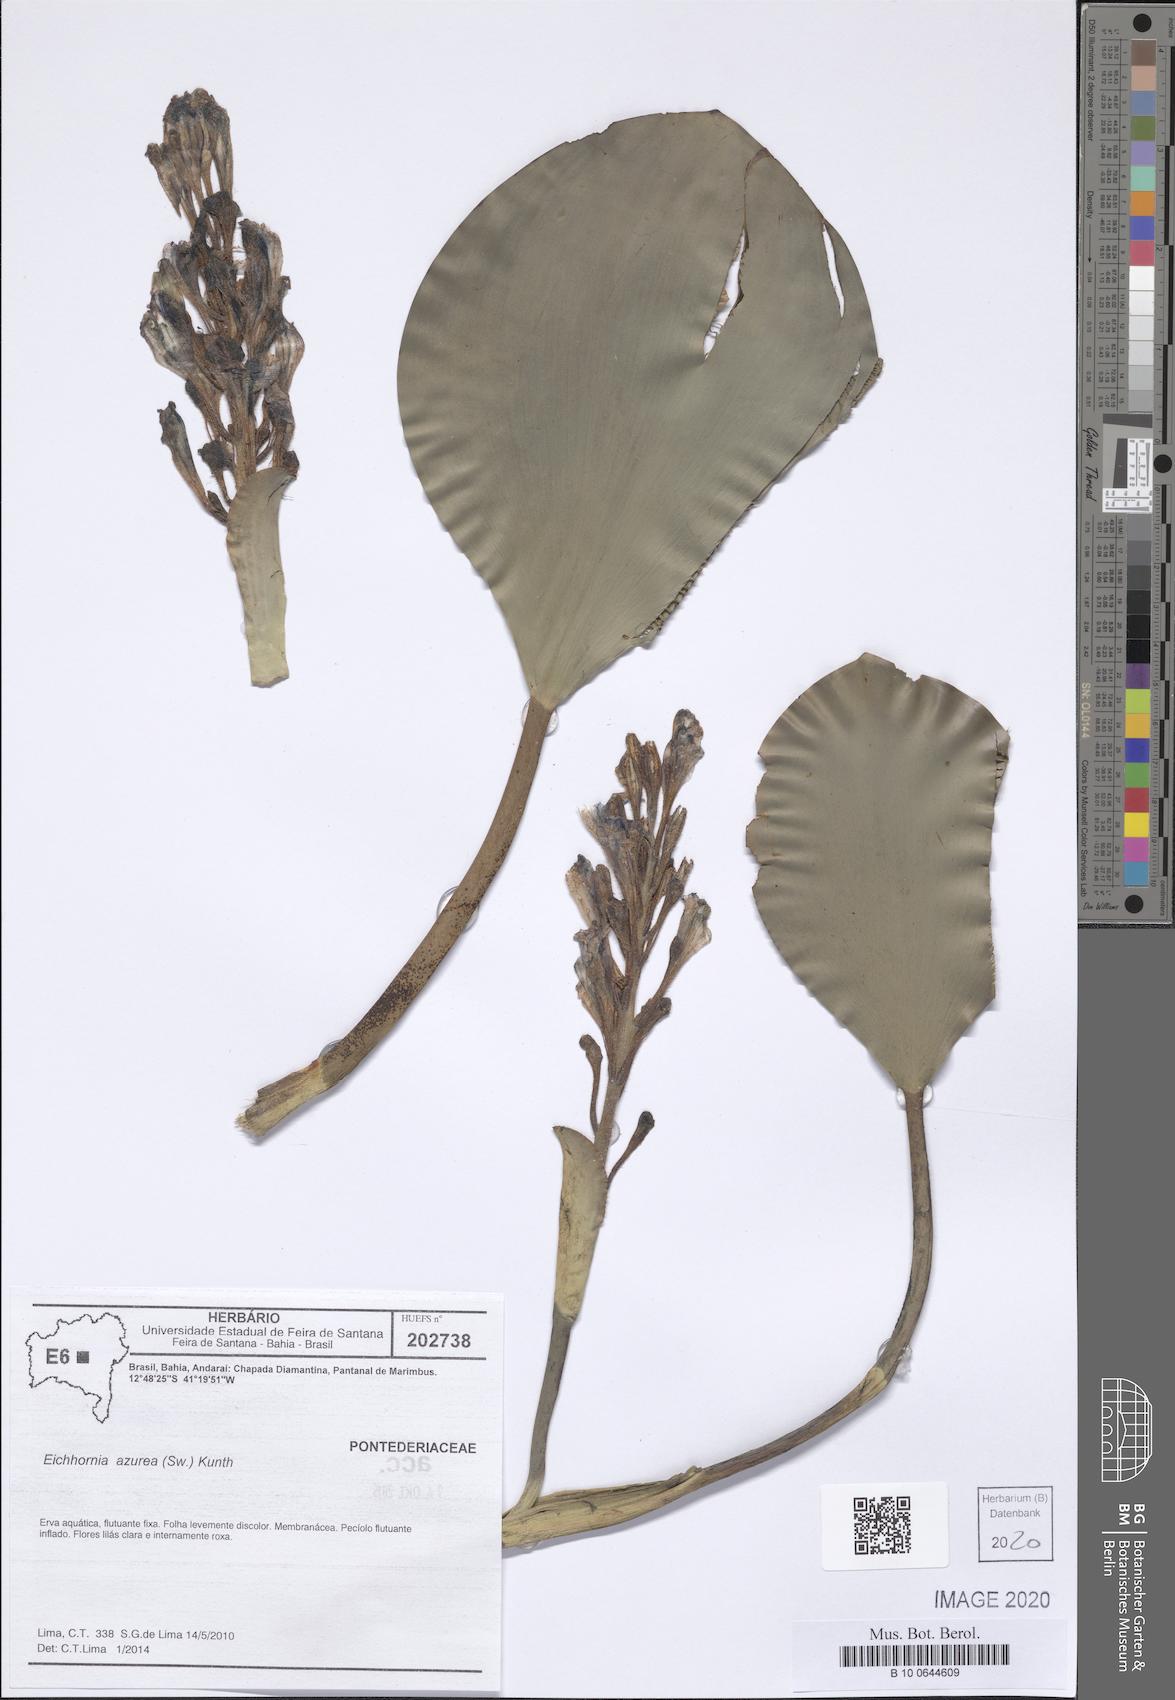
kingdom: Plantae
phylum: Tracheophyta
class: Liliopsida
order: Commelinales
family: Pontederiaceae
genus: Pontederia
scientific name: Pontederia azurea
